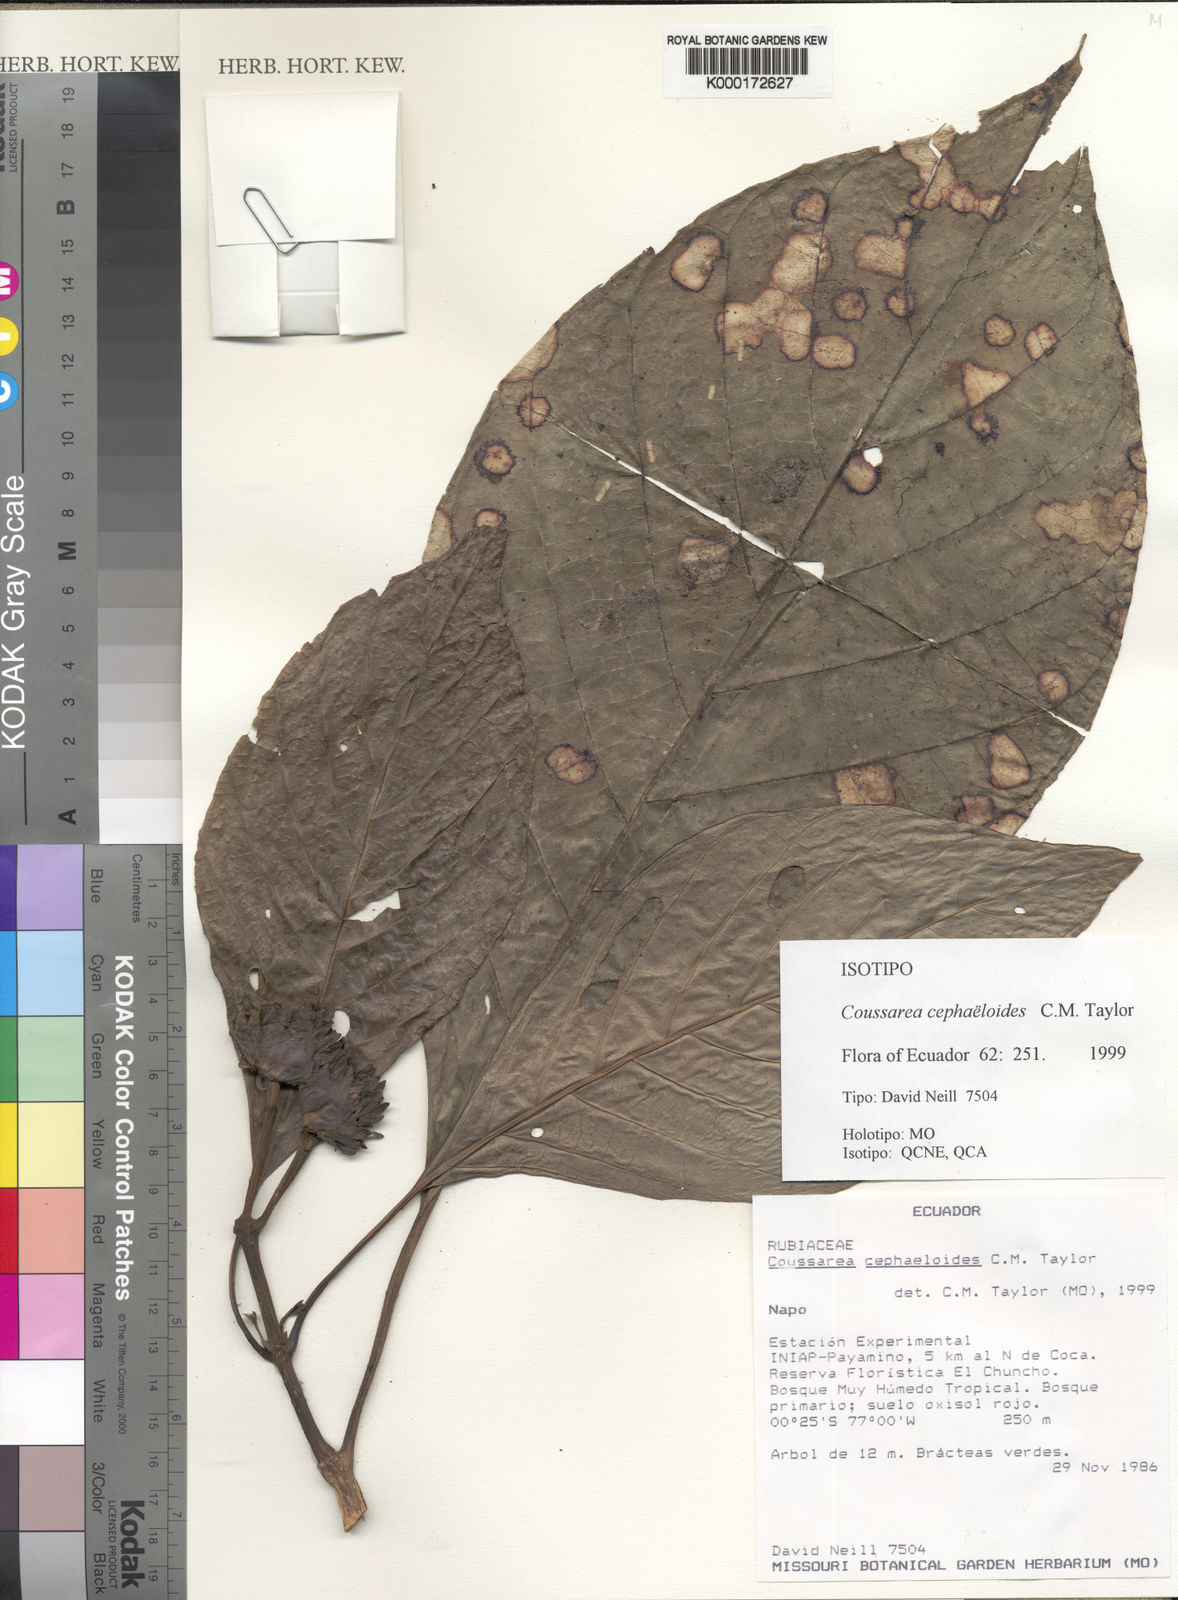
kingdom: Plantae
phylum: Tracheophyta
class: Magnoliopsida
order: Gentianales
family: Rubiaceae
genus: Coussarea
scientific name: Coussarea cephaeloides
